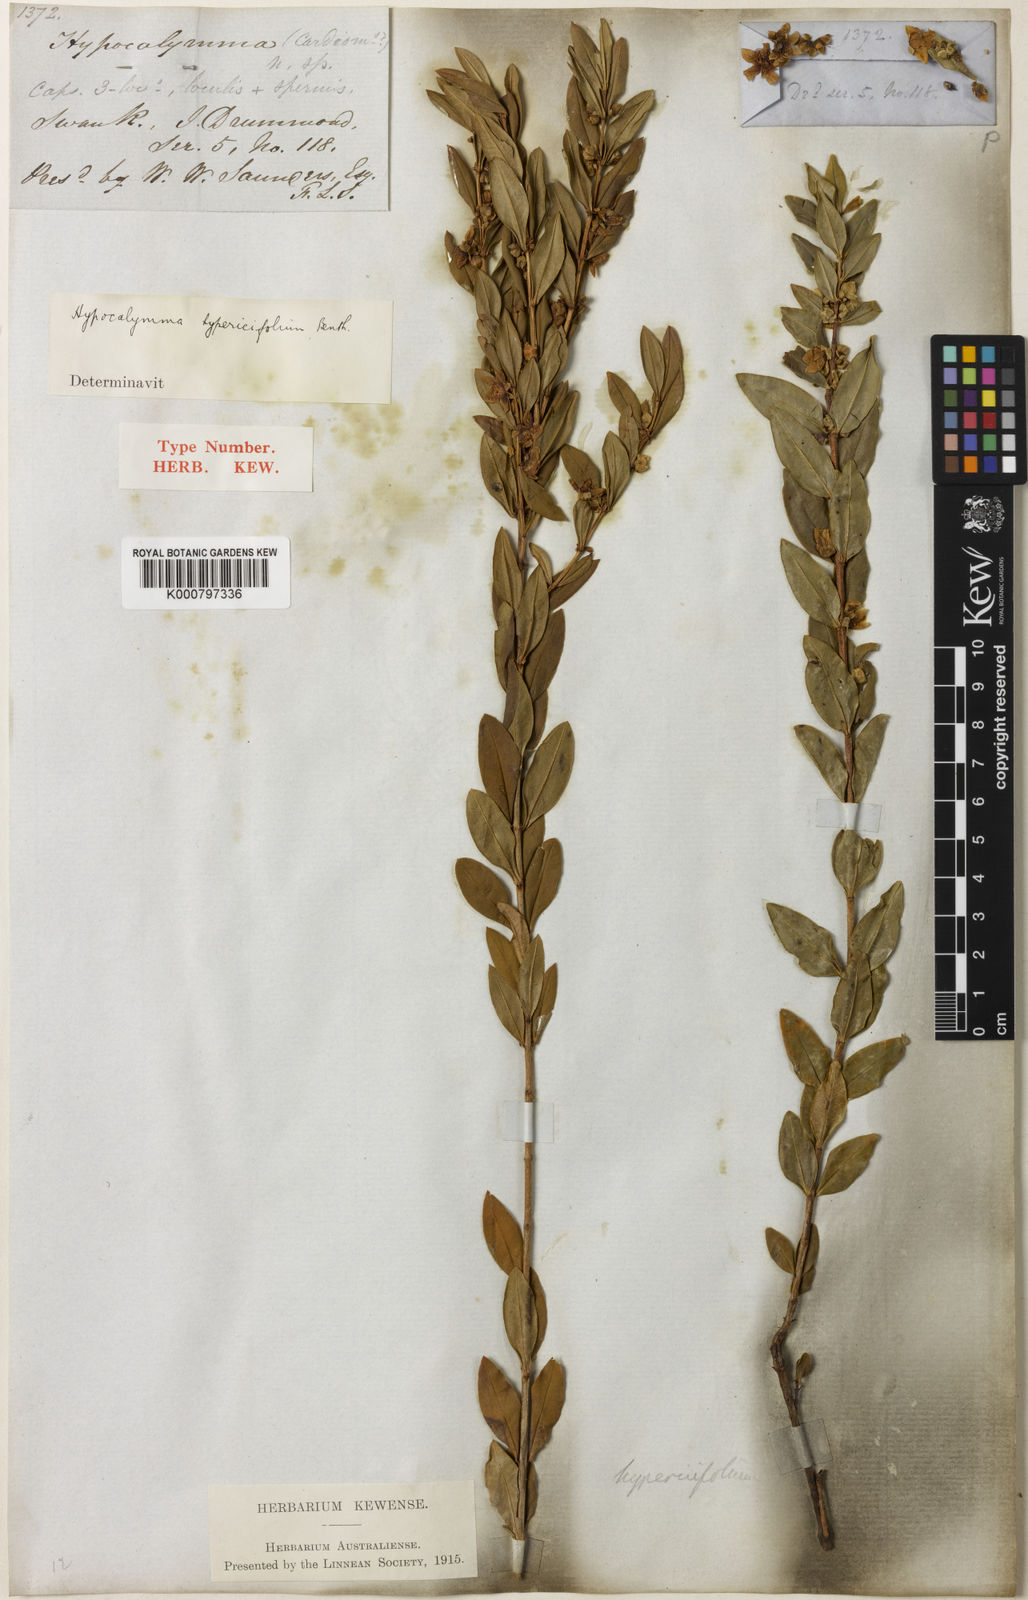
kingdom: Plantae
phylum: Tracheophyta
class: Magnoliopsida
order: Myrtales
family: Myrtaceae
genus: Hypocalymma
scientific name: Hypocalymma myrtifolium
